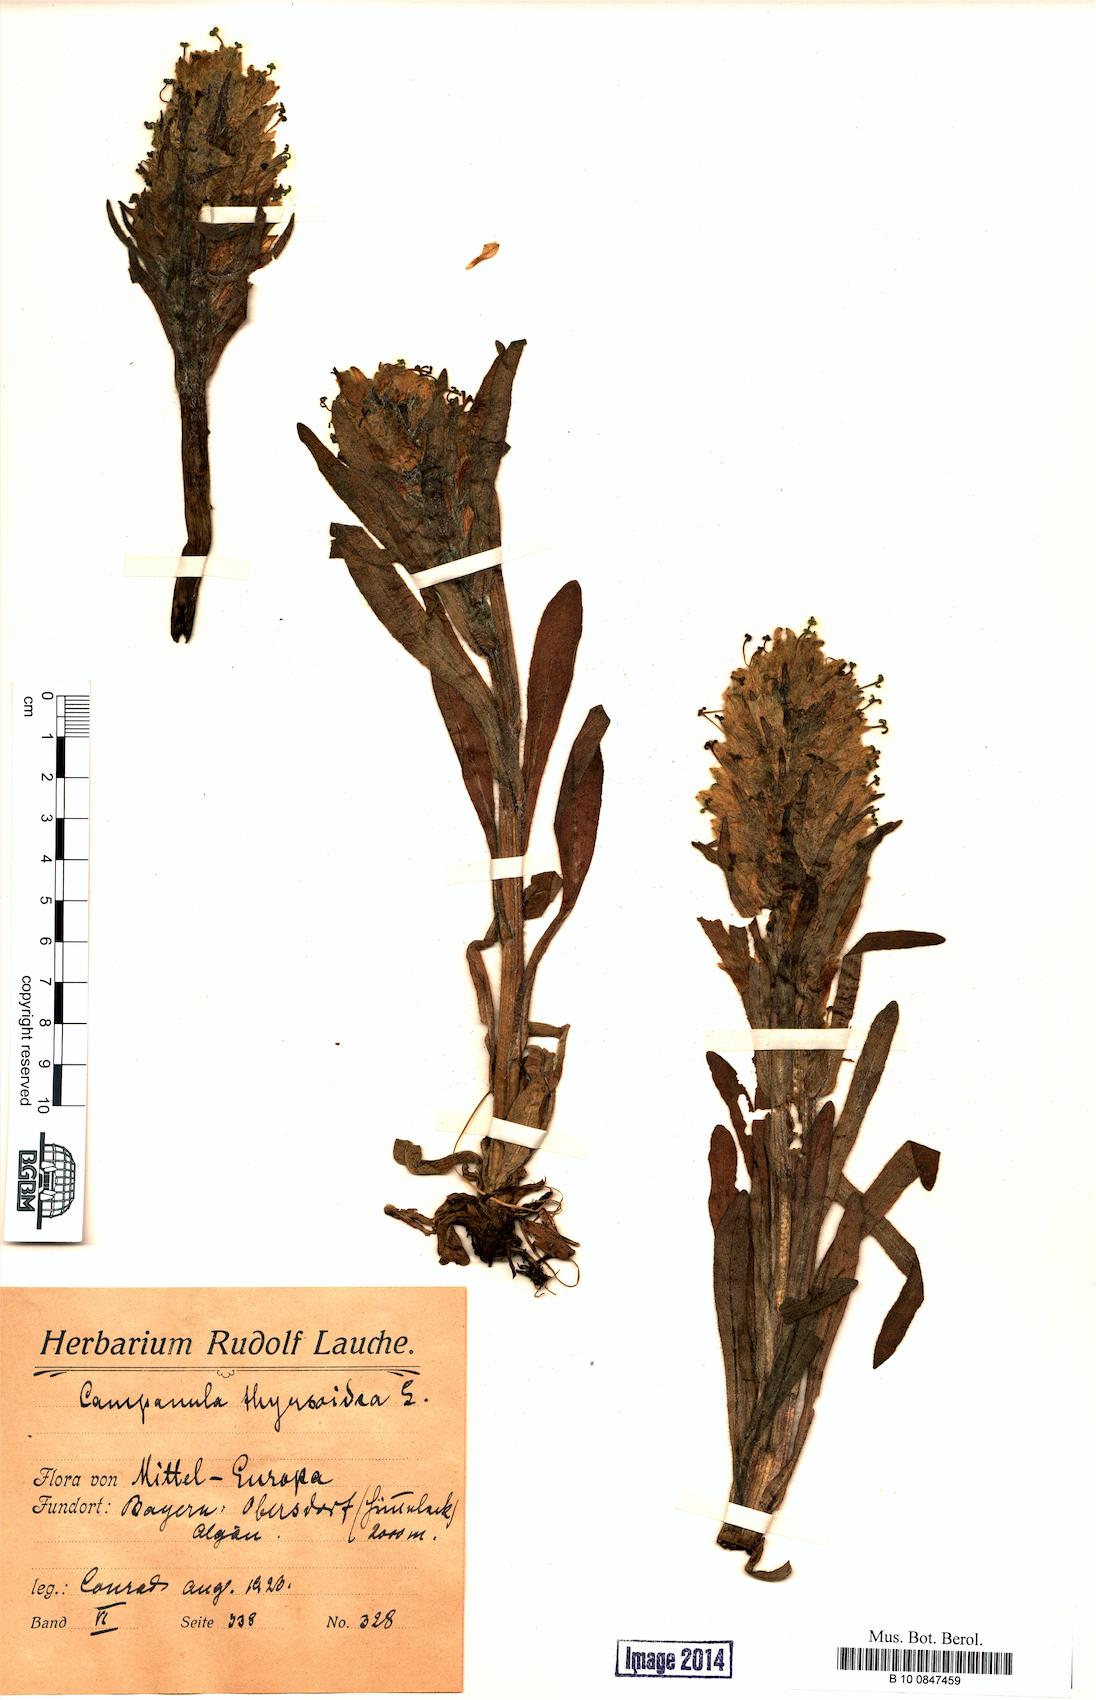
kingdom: Plantae
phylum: Tracheophyta
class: Magnoliopsida
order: Asterales
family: Campanulaceae
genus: Campanula
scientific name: Campanula thyrsoides
